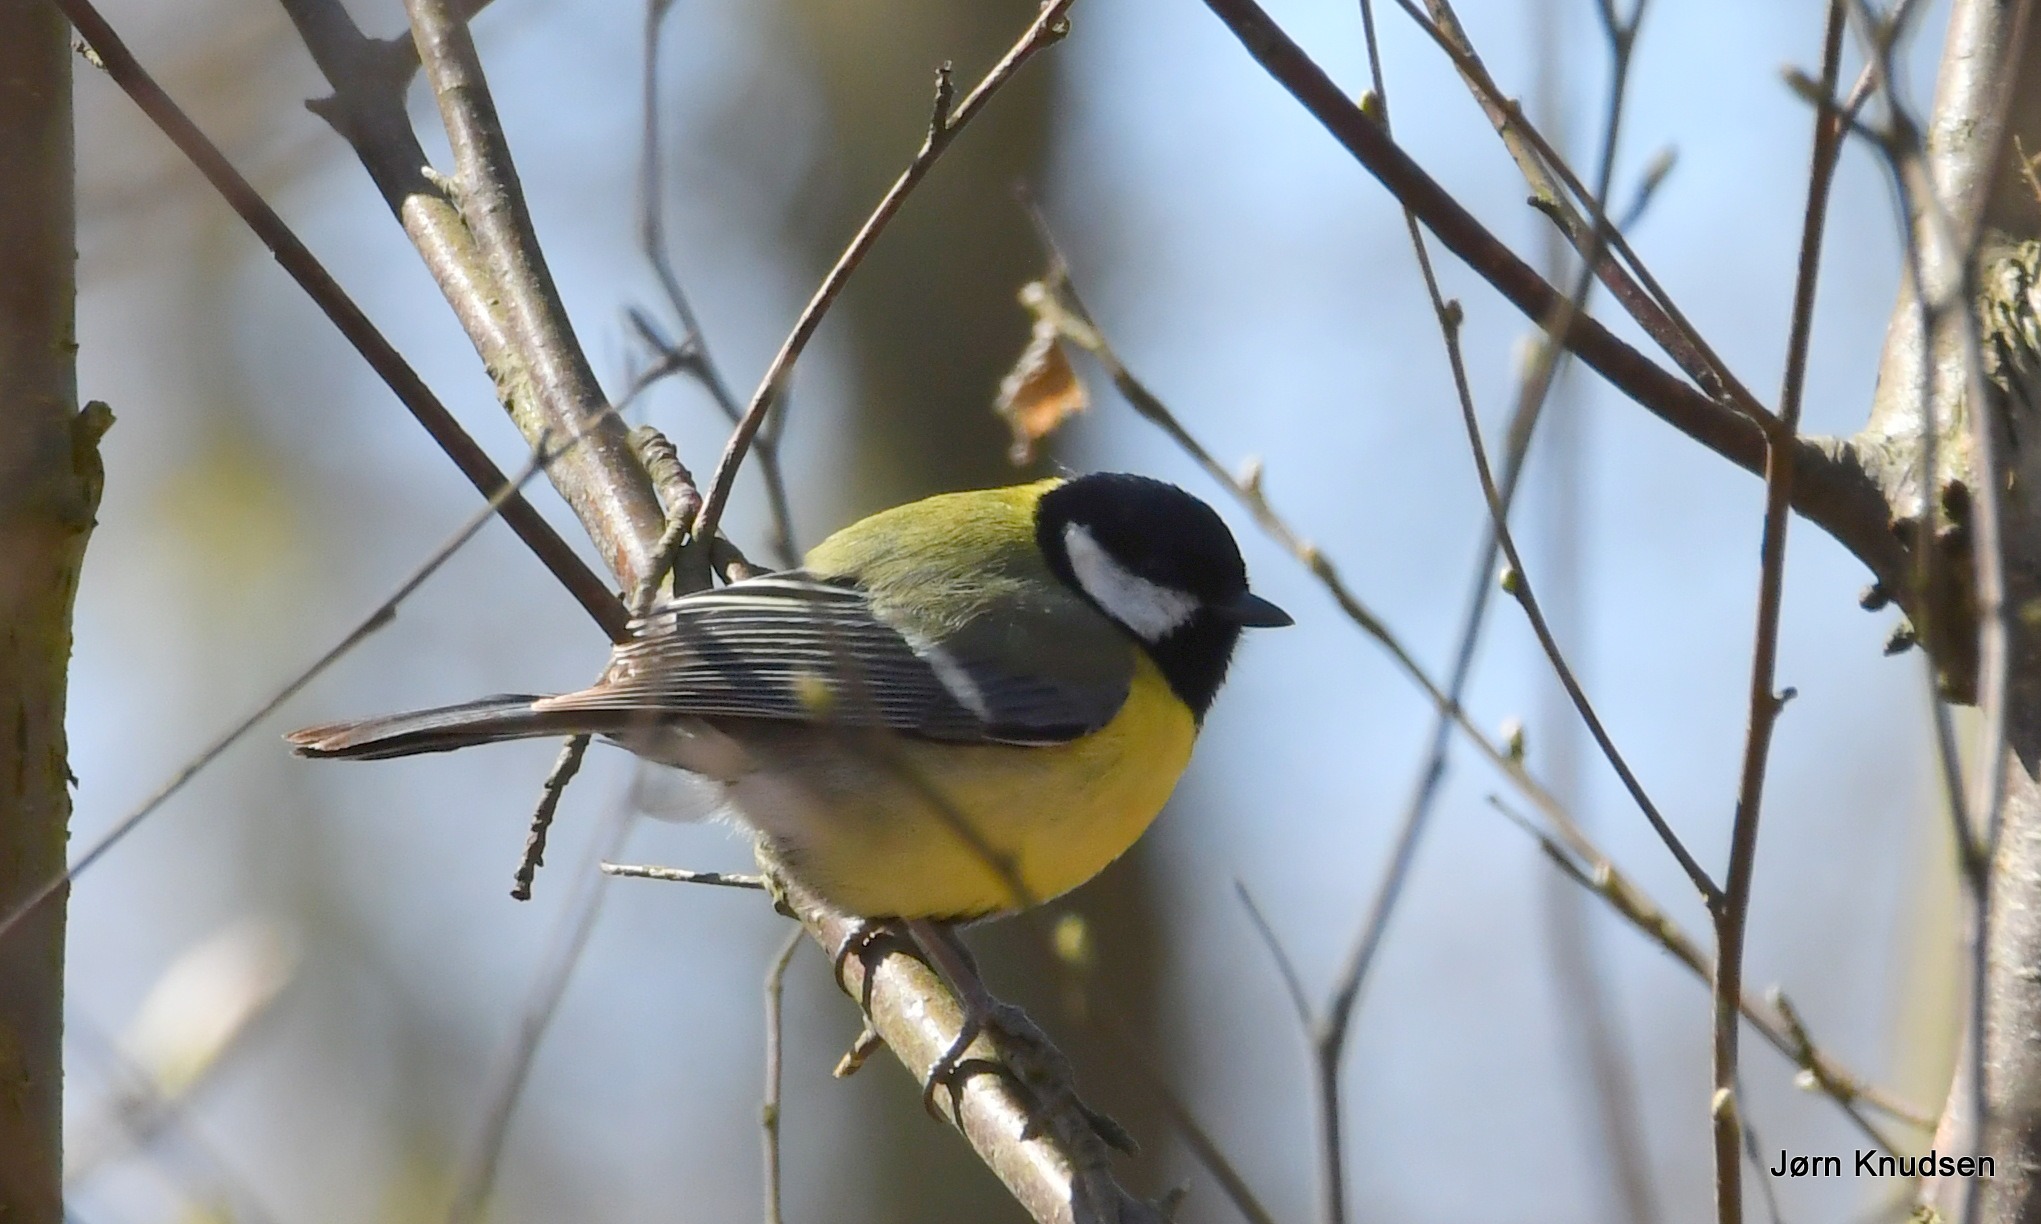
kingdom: Animalia
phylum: Chordata
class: Aves
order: Passeriformes
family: Paridae
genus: Parus
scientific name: Parus major
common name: Musvit
